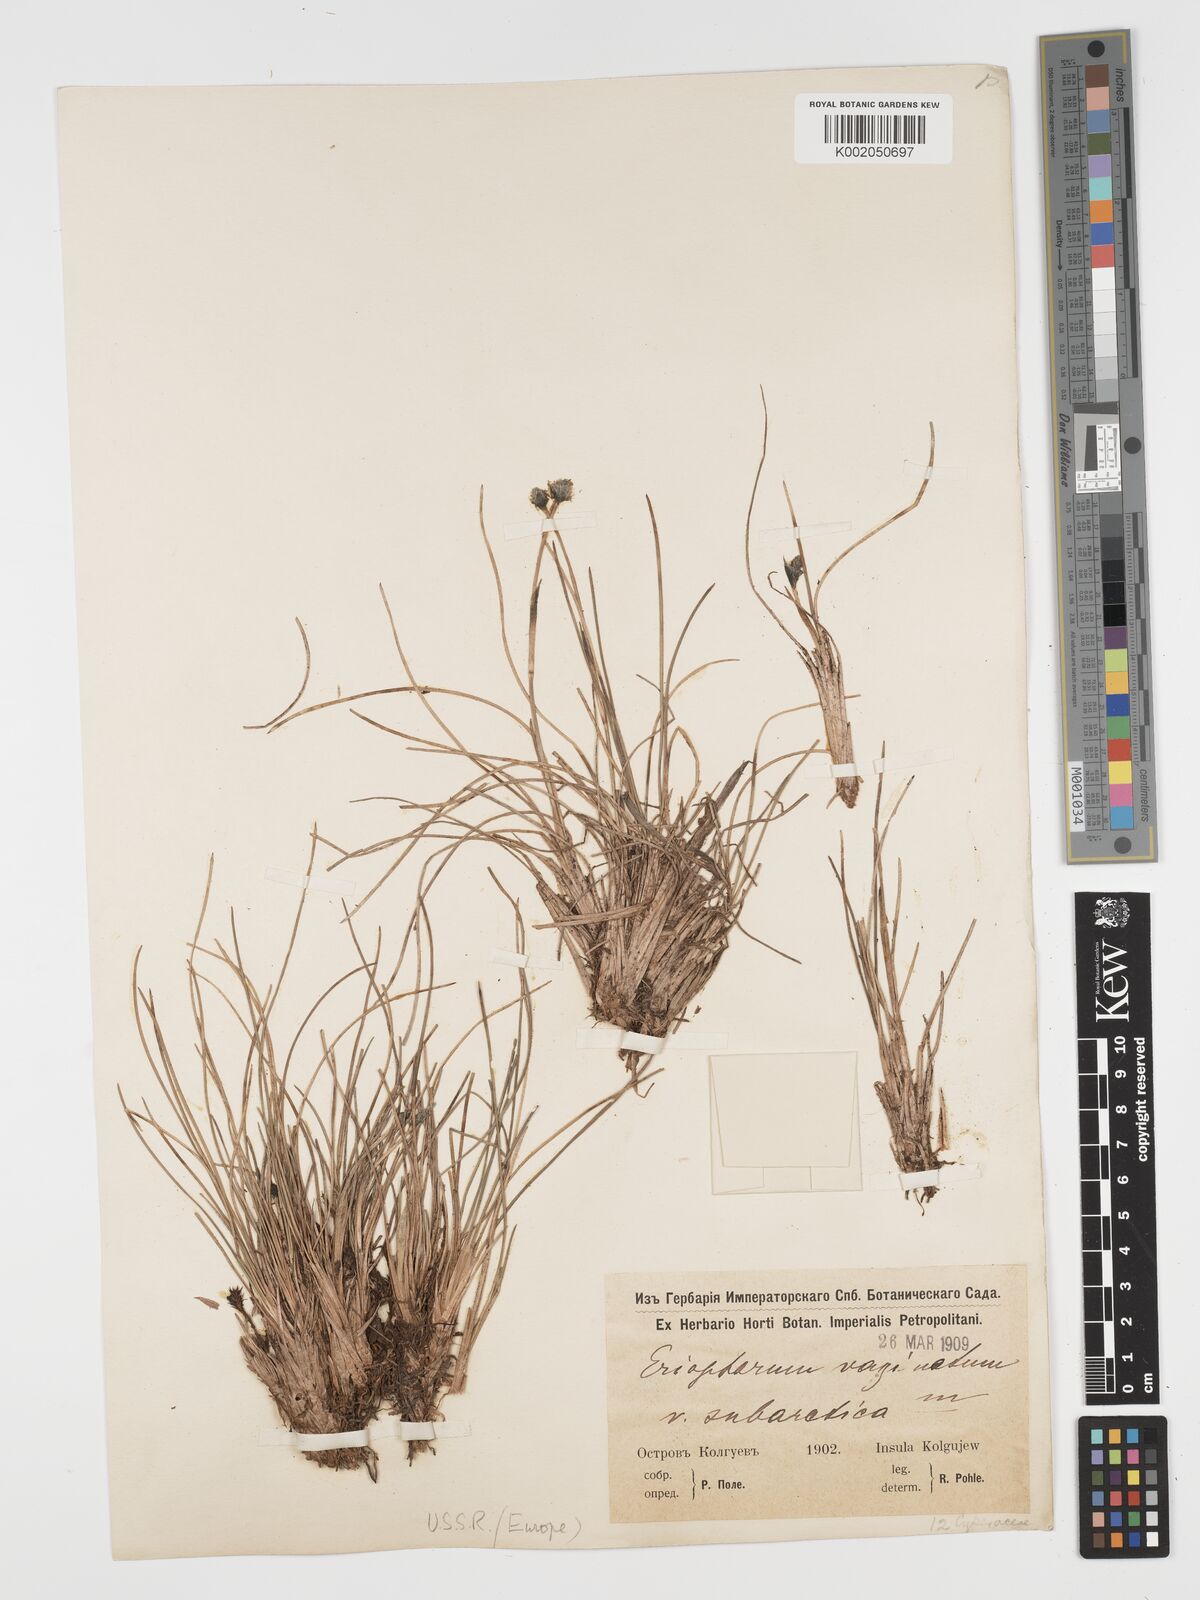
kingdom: Plantae
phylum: Tracheophyta
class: Liliopsida
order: Poales
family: Cyperaceae
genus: Eriophorum
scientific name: Eriophorum vaginatum
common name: Hare's-tail cottongrass
